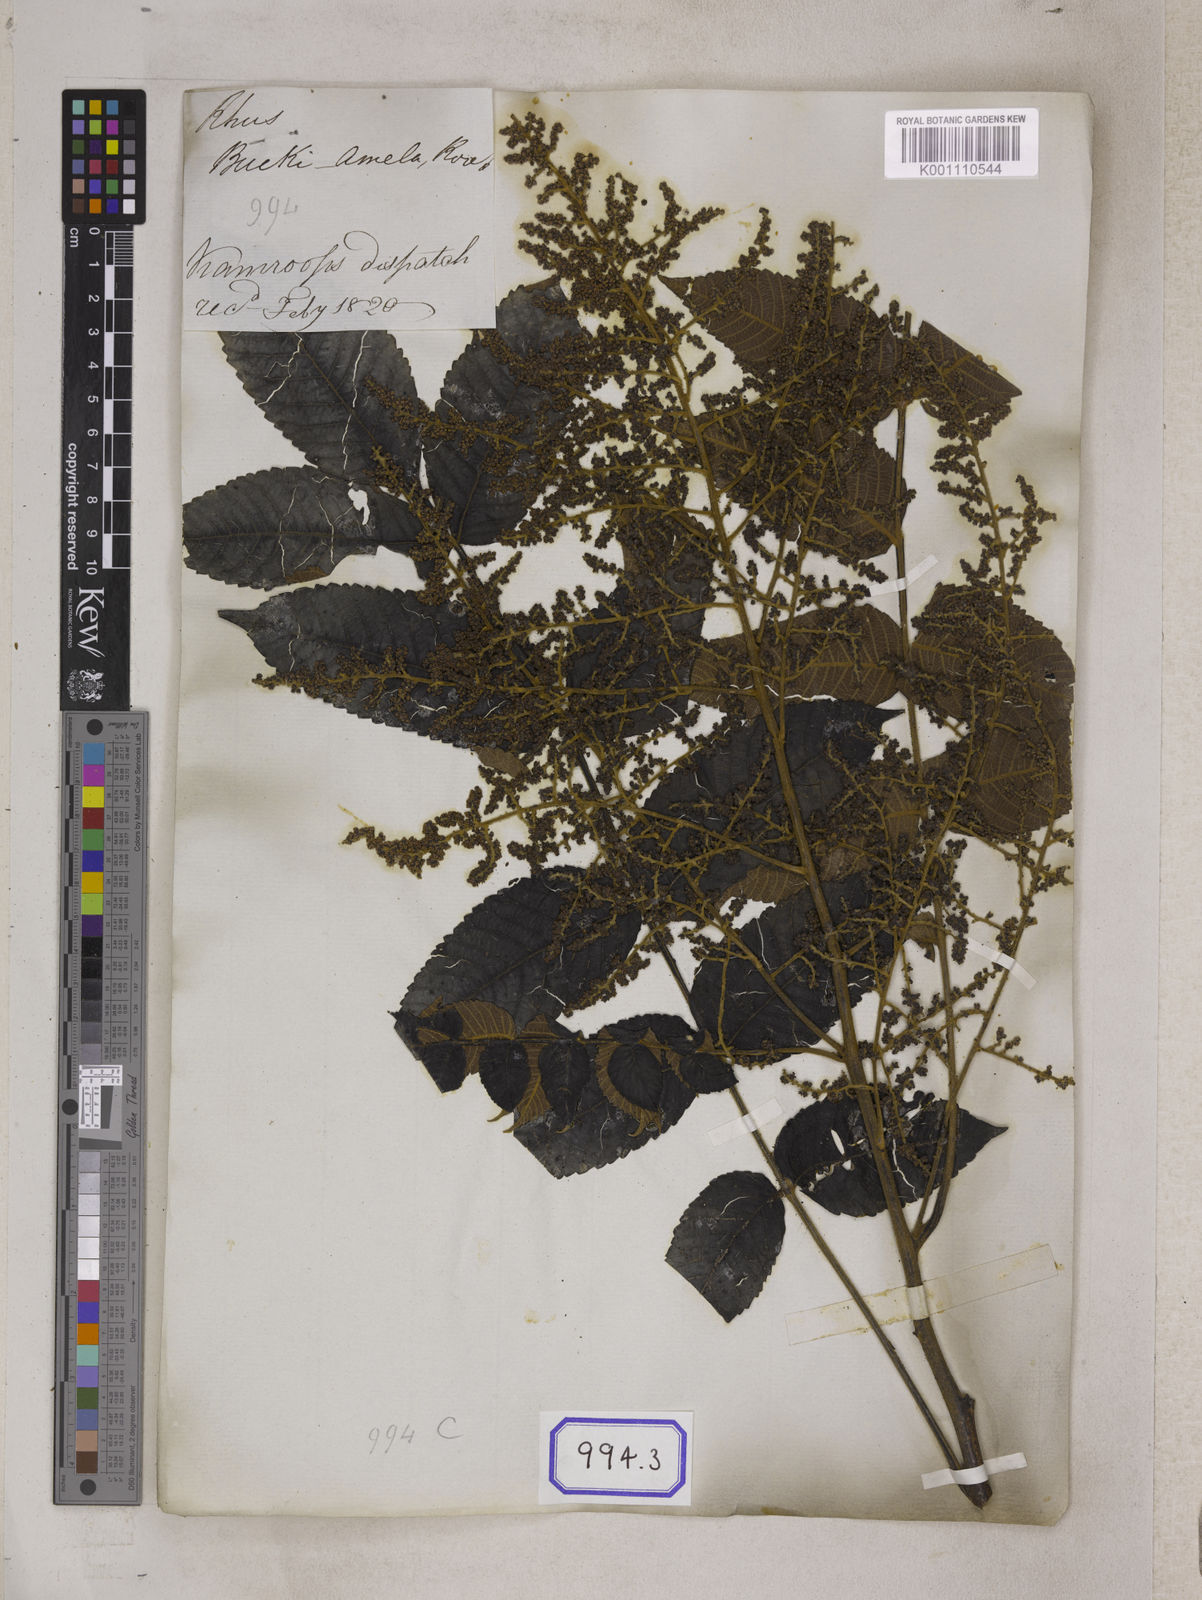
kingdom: Plantae
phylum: Tracheophyta
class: Magnoliopsida
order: Sapindales
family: Simaroubaceae
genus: Brucea
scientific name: Brucea javanica
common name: Macassar kernels
